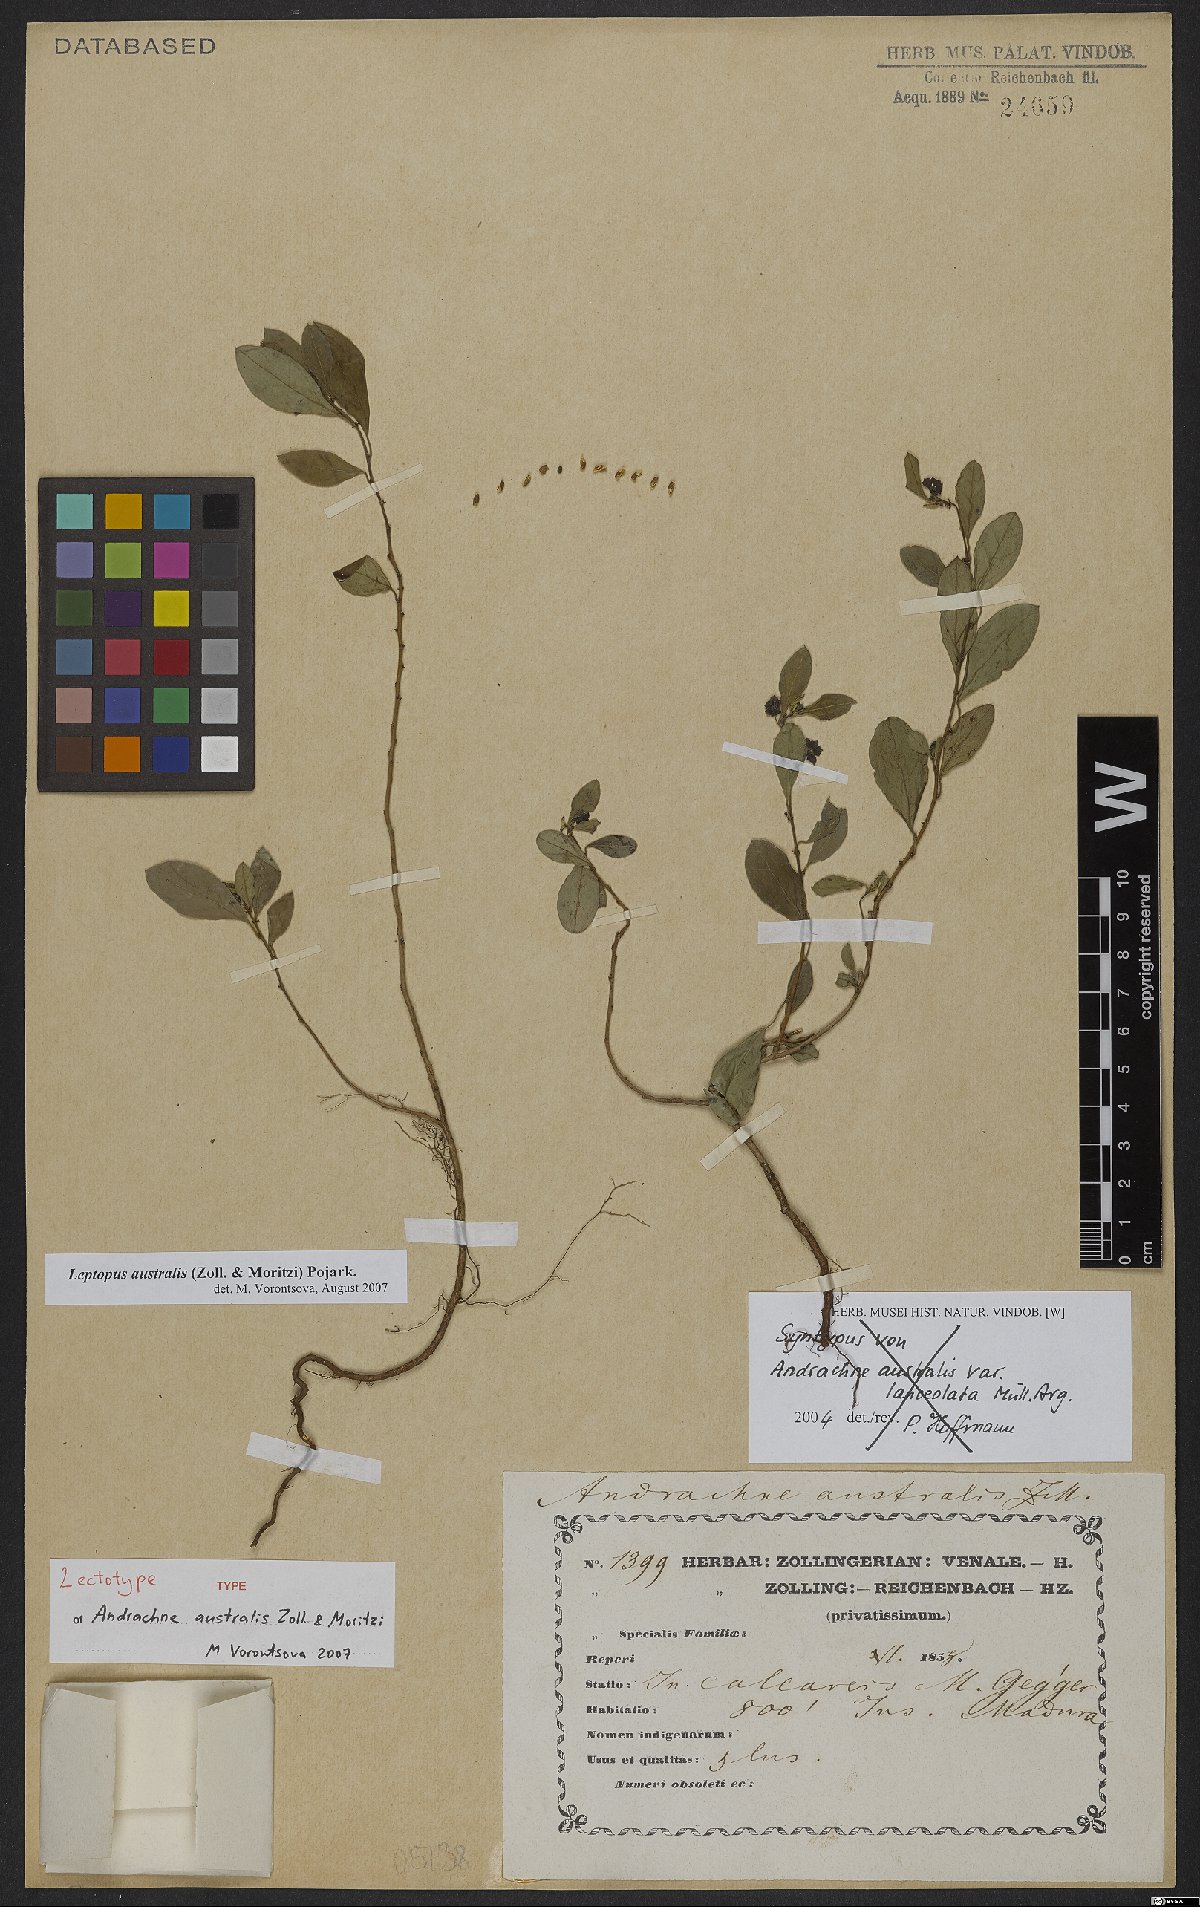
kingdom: Plantae
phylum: Tracheophyta
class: Magnoliopsida
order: Malpighiales
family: Phyllanthaceae
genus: Leptopus
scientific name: Leptopus australis
